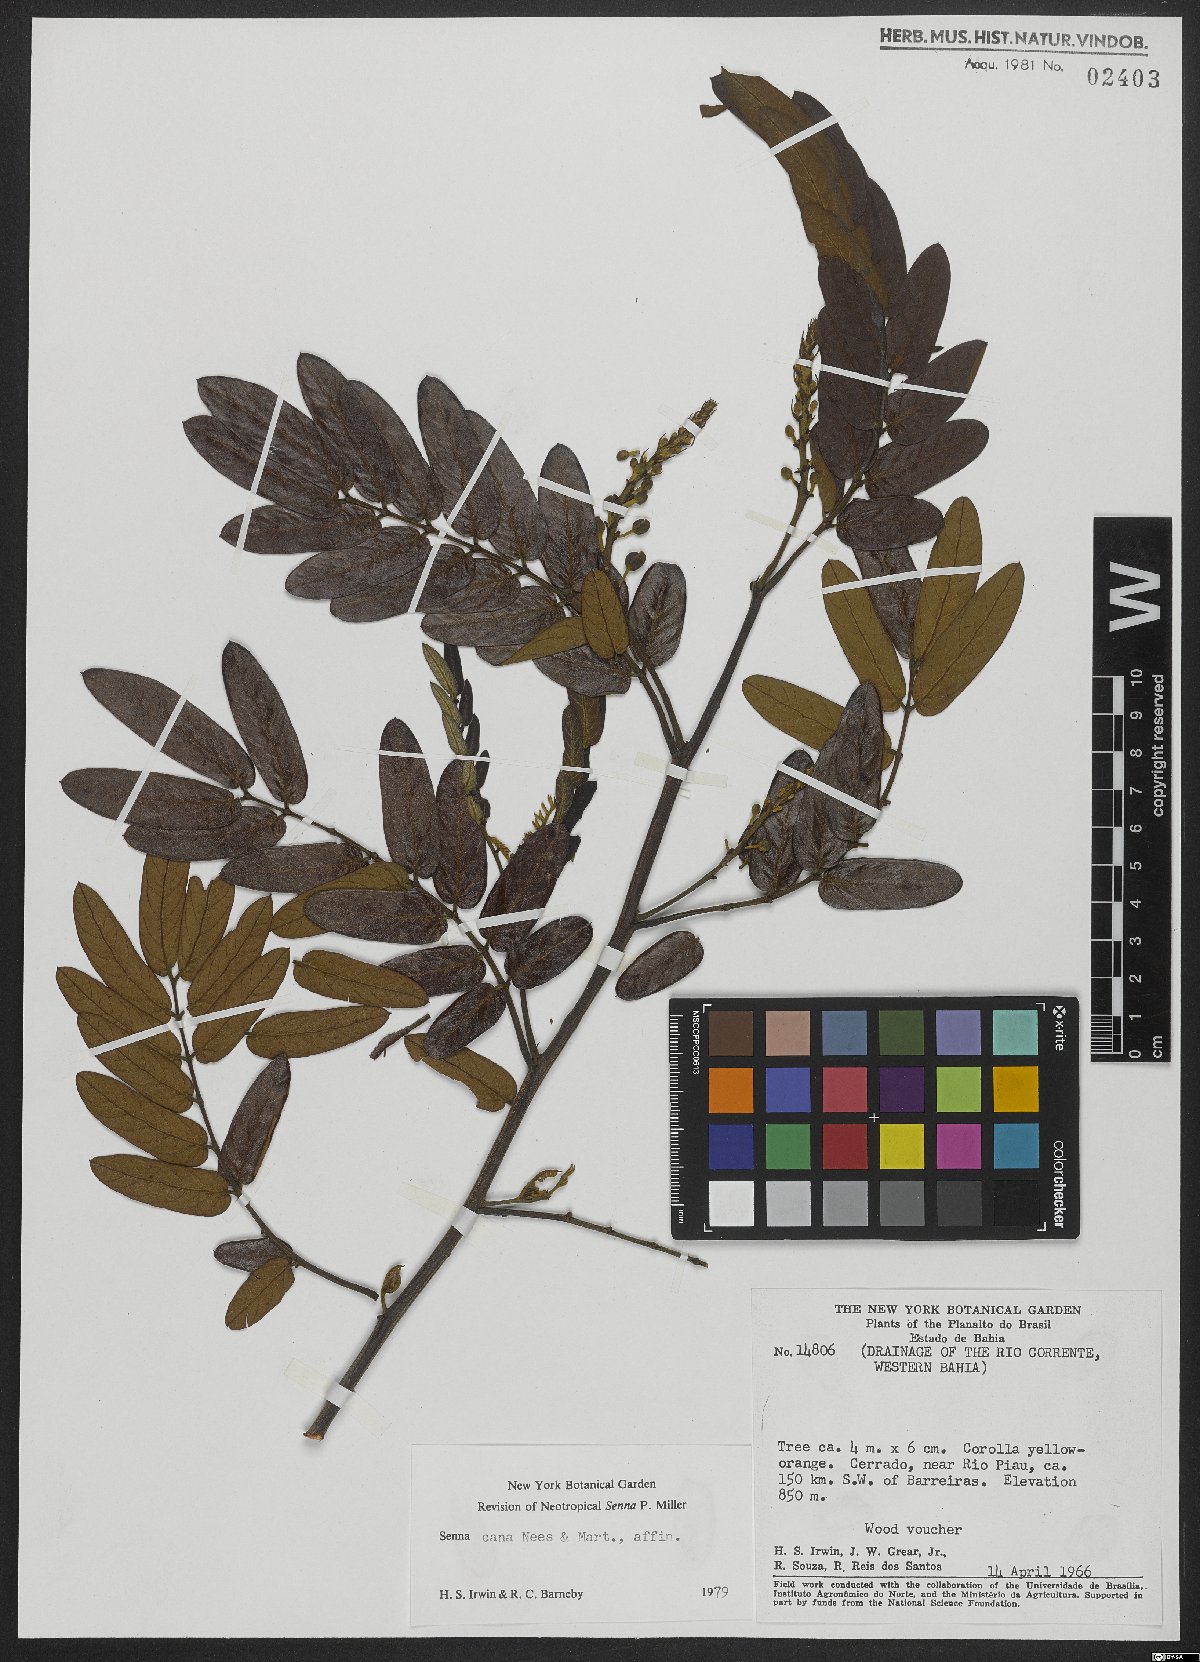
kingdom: Plantae
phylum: Tracheophyta
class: Magnoliopsida
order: Fabales
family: Fabaceae
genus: Senna
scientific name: Senna cana
